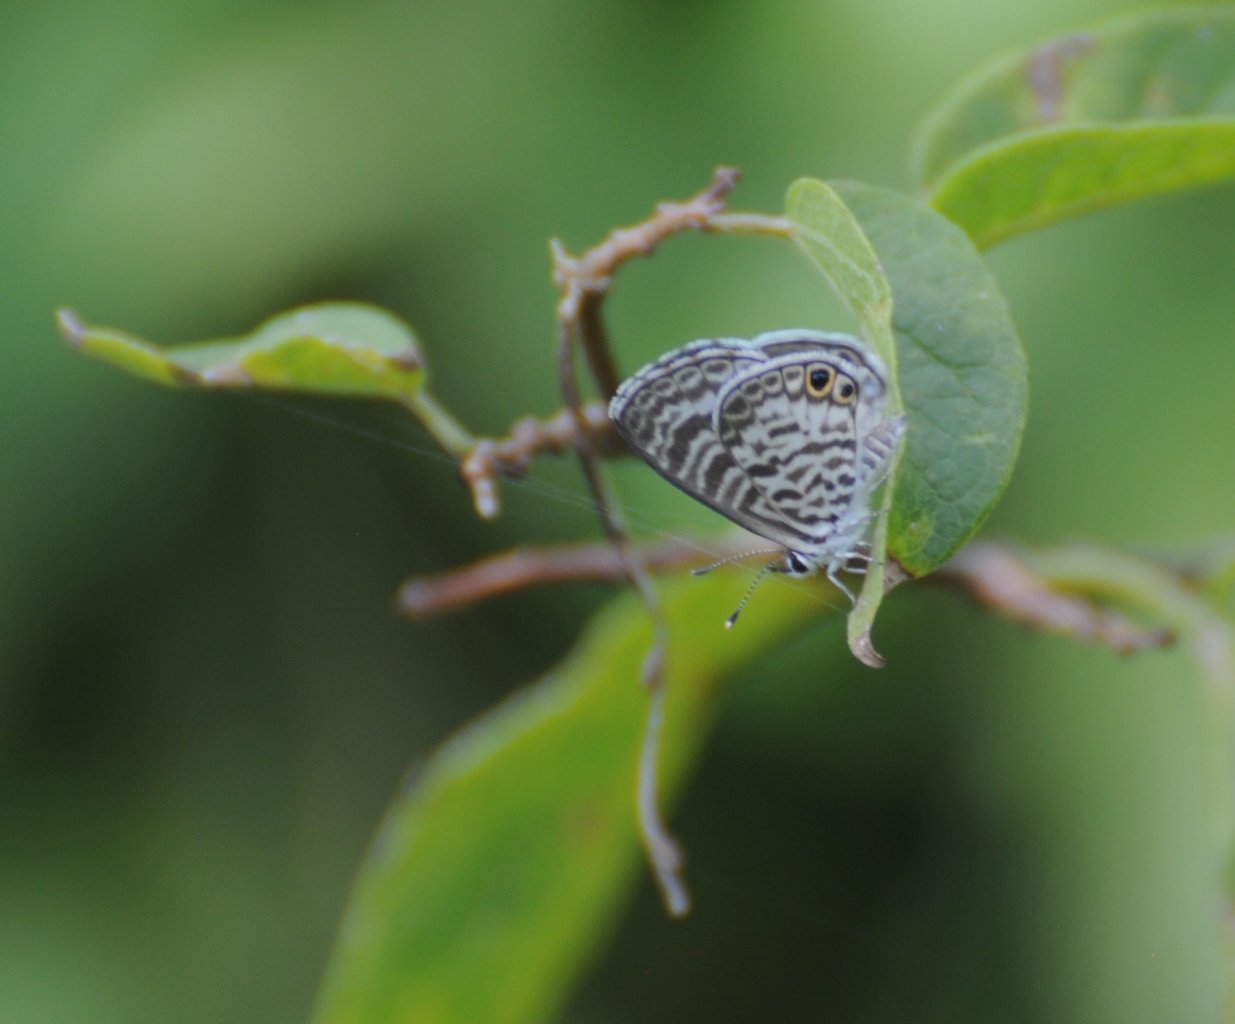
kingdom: Animalia
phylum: Arthropoda
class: Insecta
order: Lepidoptera
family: Lycaenidae
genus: Leptotes
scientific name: Leptotes cassius
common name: Cassius Blue
